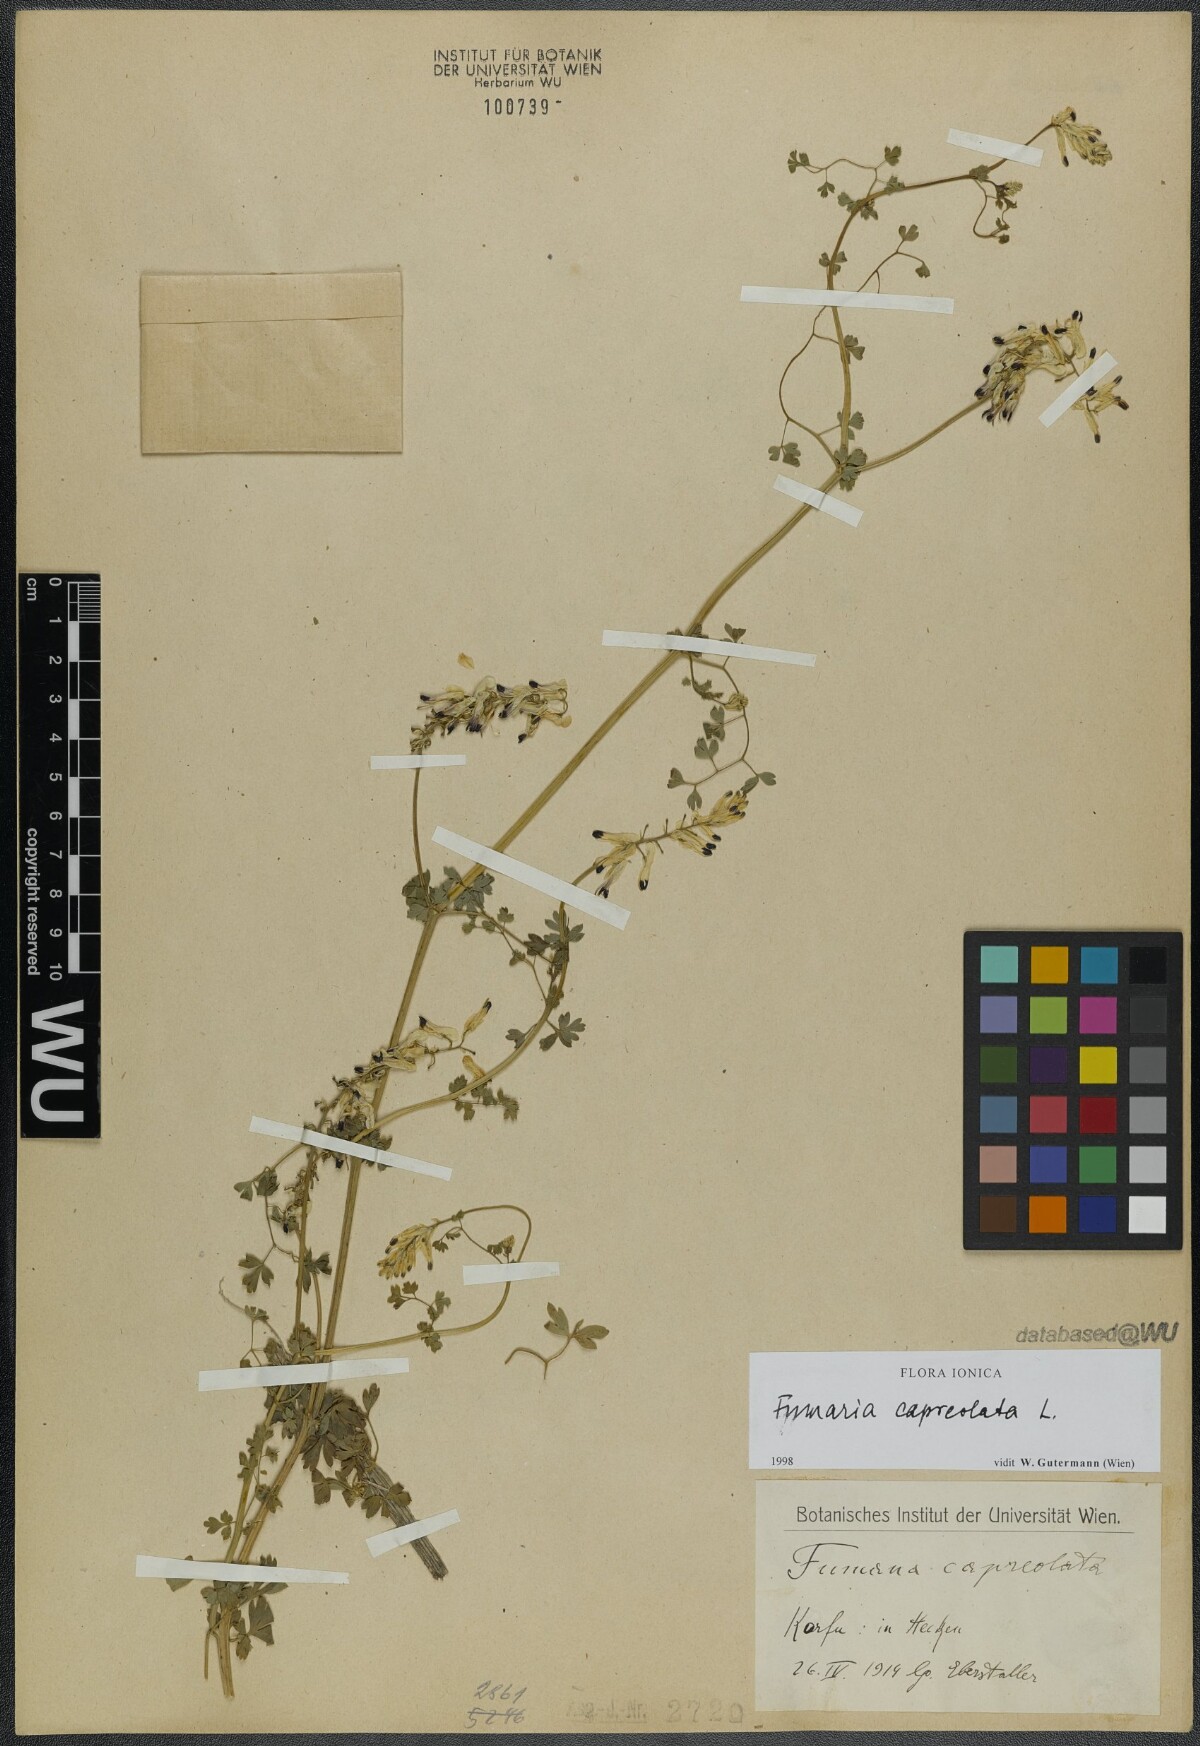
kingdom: Plantae
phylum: Tracheophyta
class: Magnoliopsida
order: Ranunculales
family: Papaveraceae
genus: Fumaria
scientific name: Fumaria capreolata
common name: White ramping-fumitory
